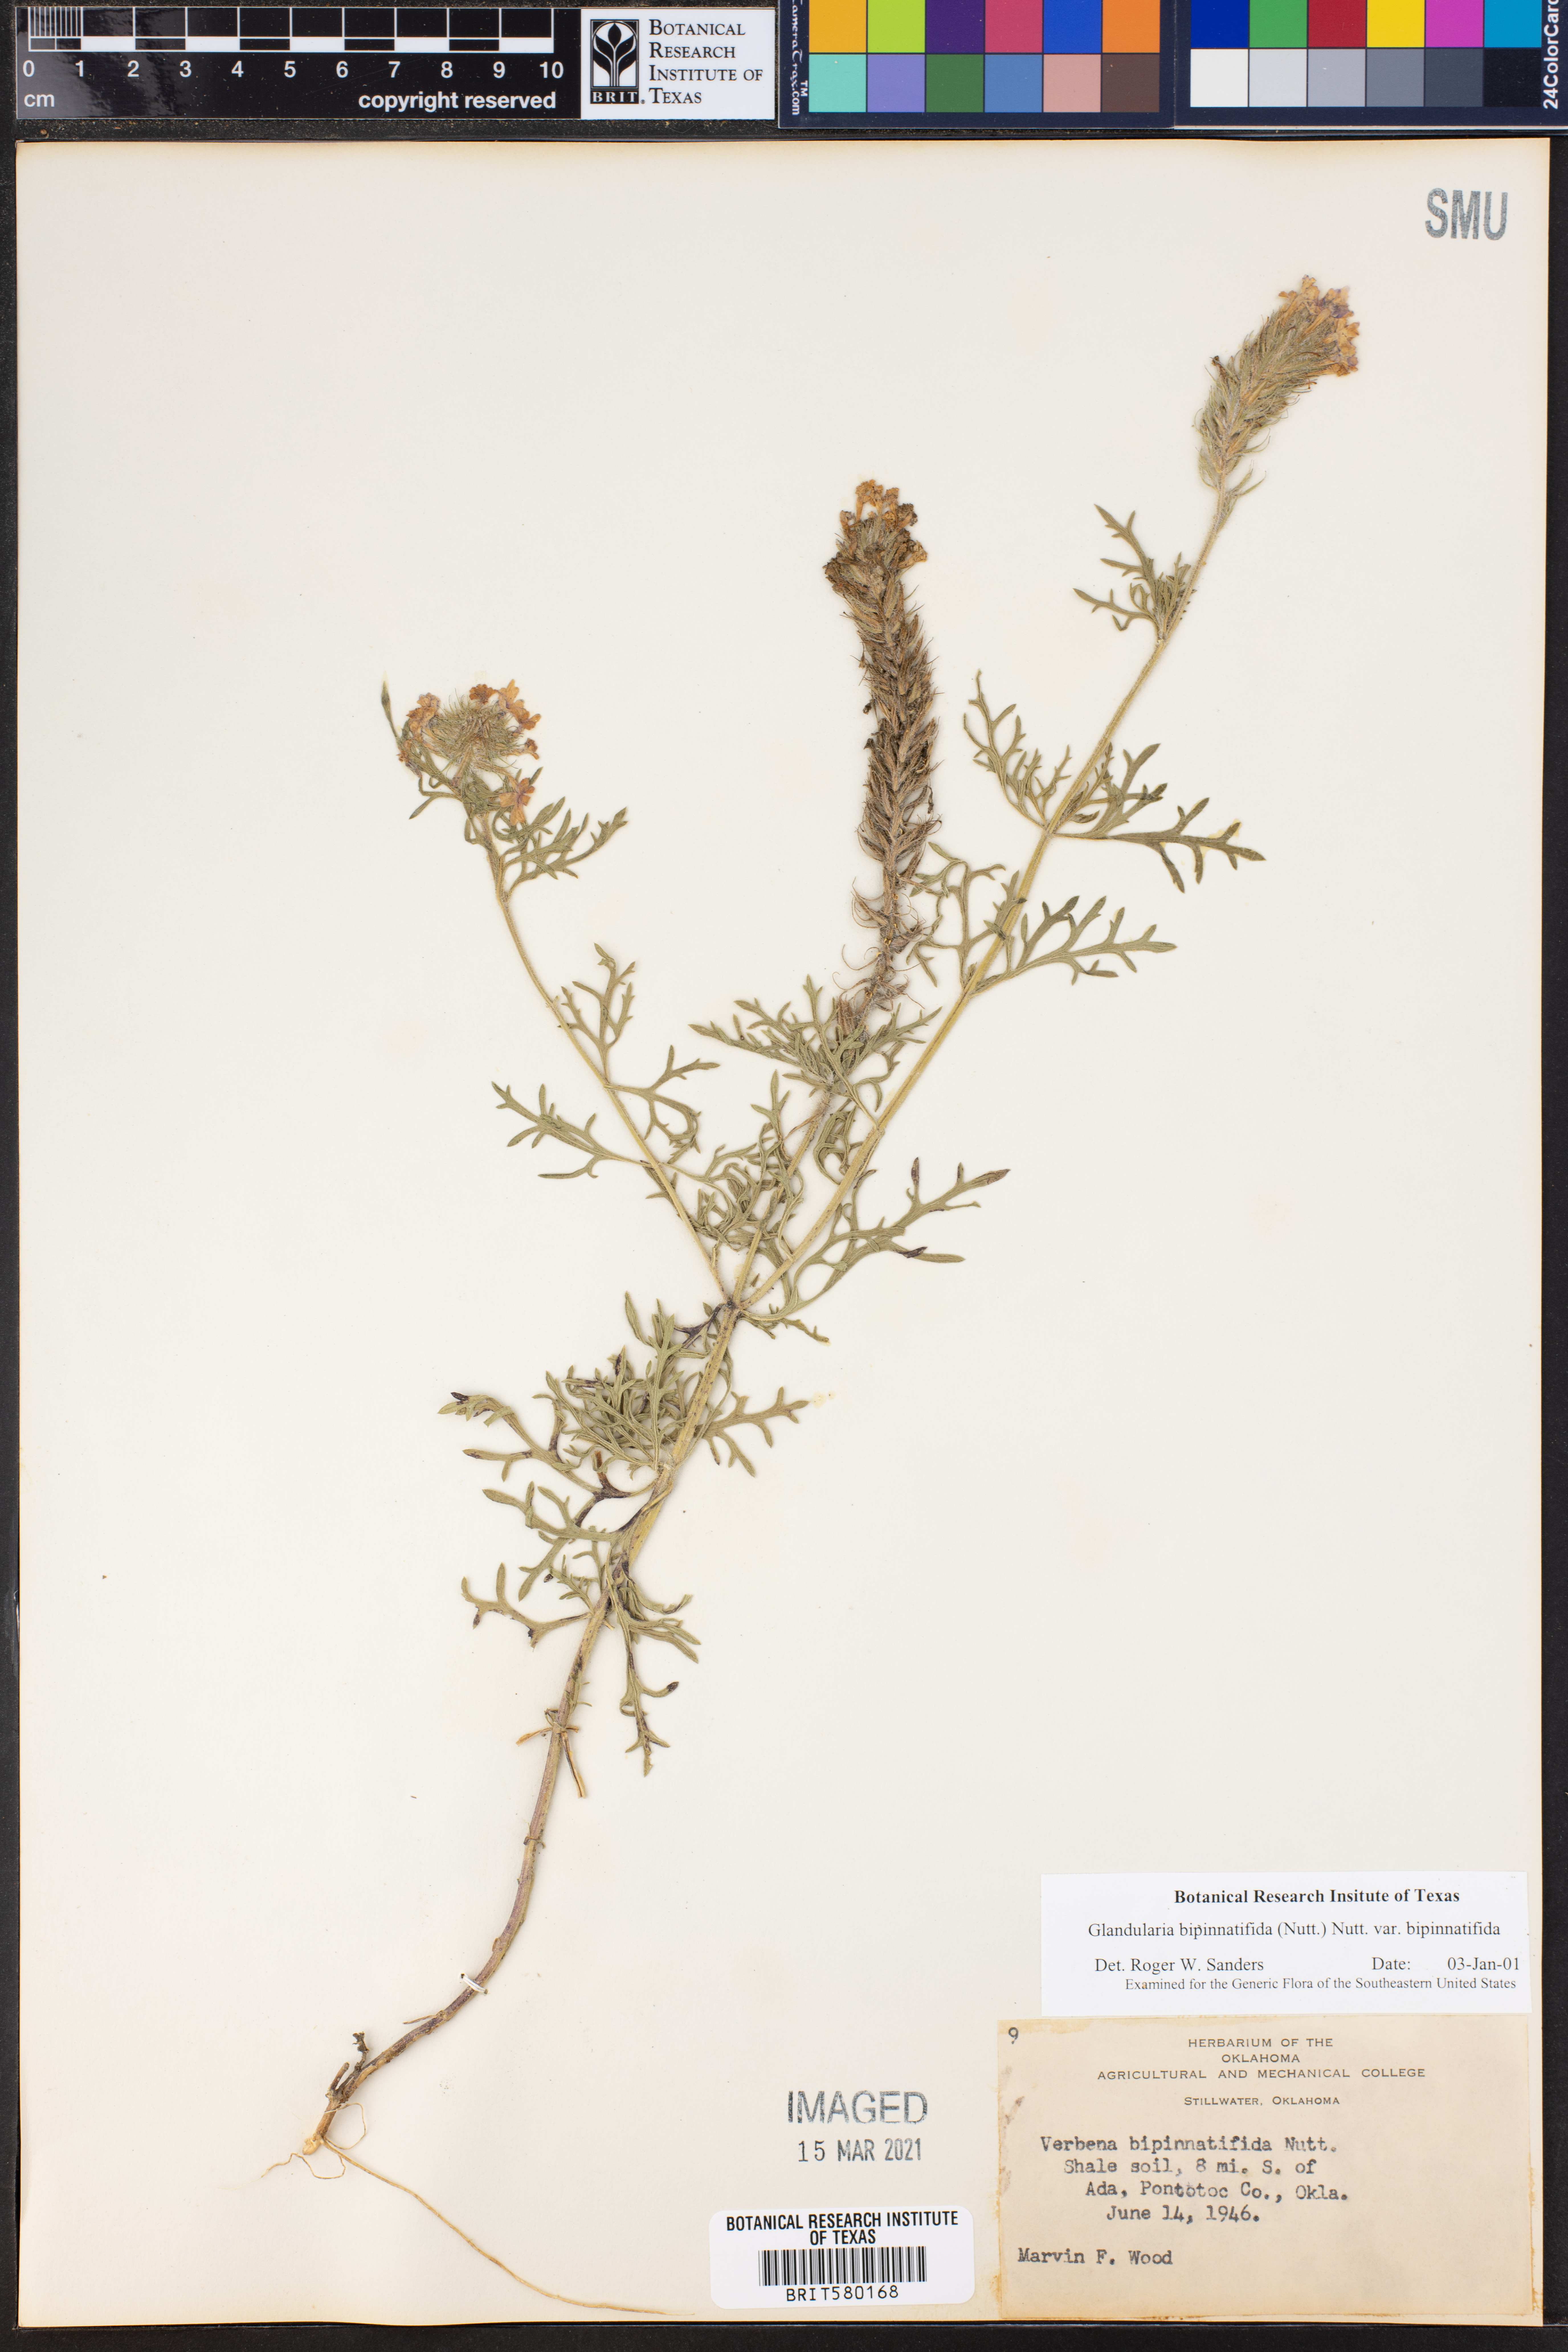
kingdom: Plantae
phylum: Tracheophyta
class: Magnoliopsida
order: Lamiales
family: Verbenaceae
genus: Verbena
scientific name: Verbena bipinnatifida
